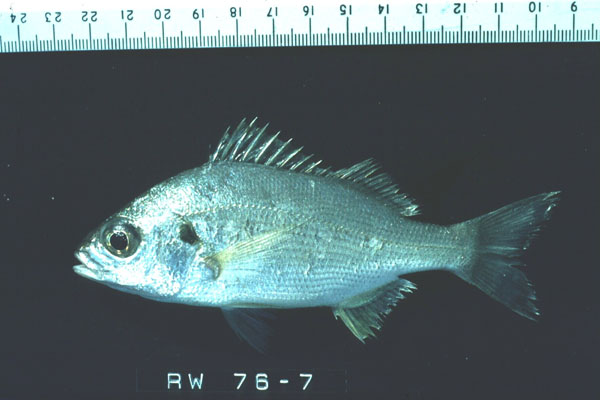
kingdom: Animalia
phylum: Chordata
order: Perciformes
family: Haemulidae
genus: Pomadasys
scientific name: Pomadasys olivaceus
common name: Olive grunt
